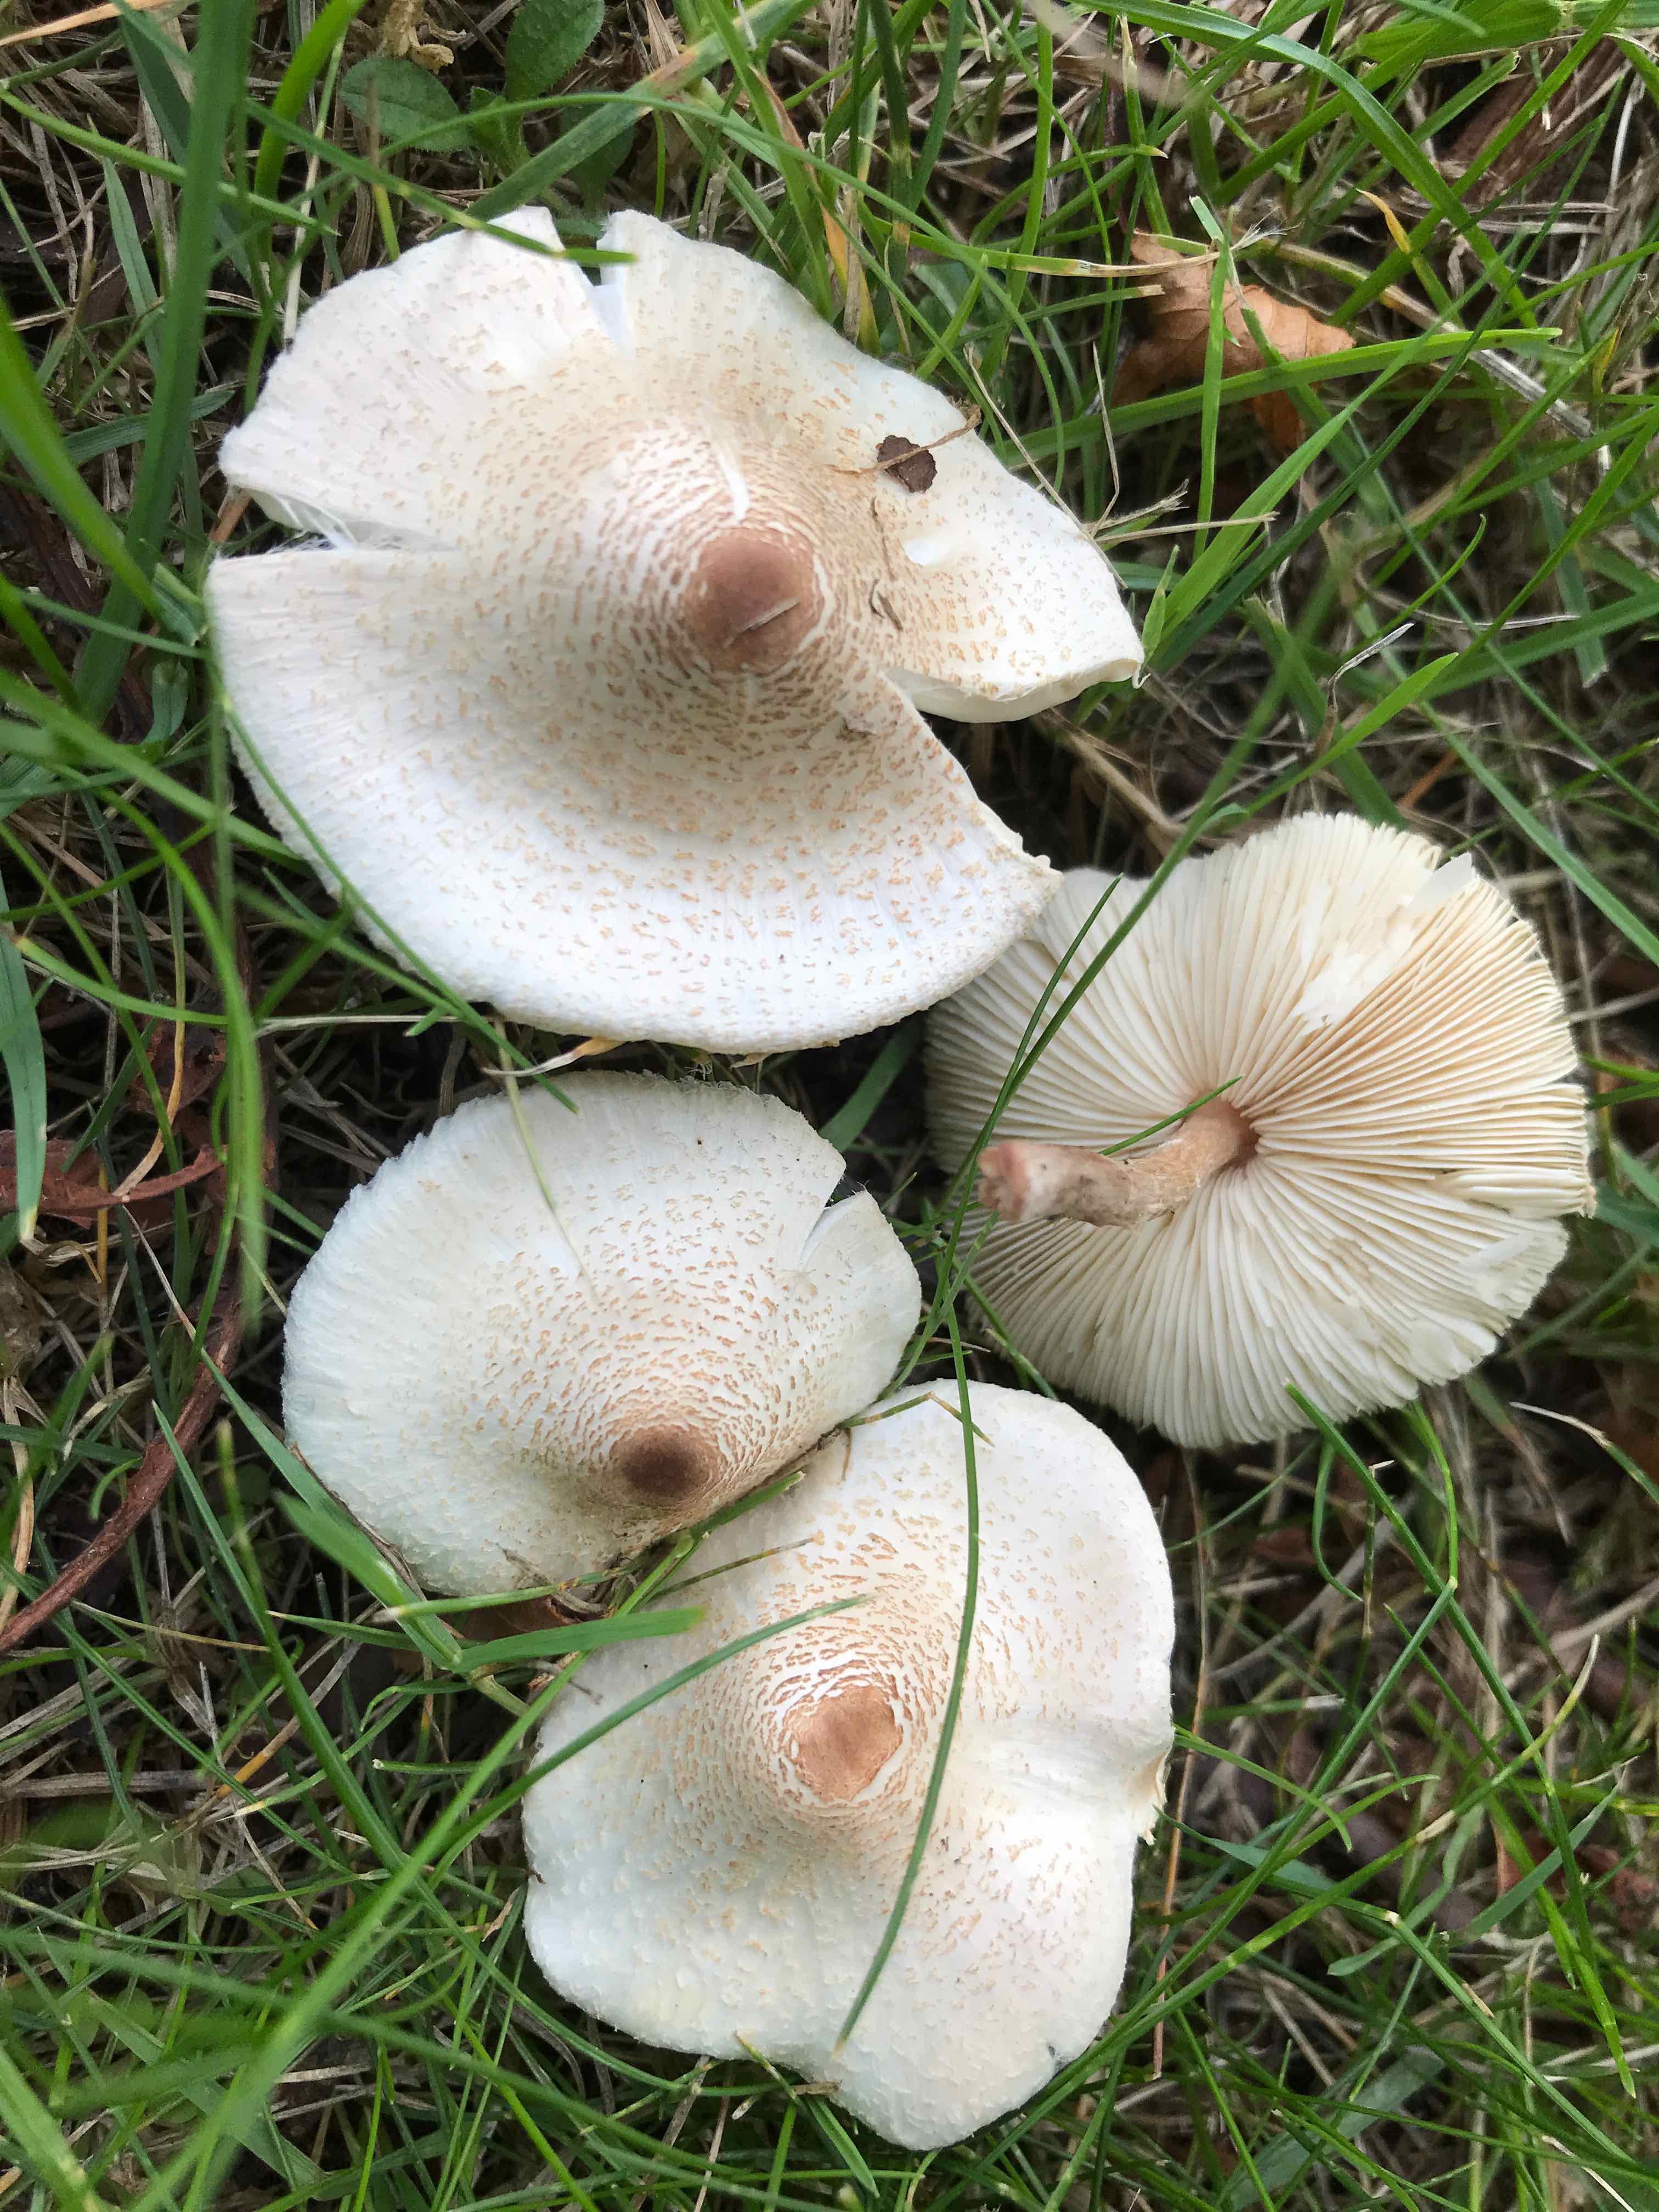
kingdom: Fungi
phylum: Basidiomycota
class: Agaricomycetes
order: Agaricales
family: Agaricaceae
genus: Lepiota
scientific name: Lepiota cristata
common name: stinkende parasolhat
